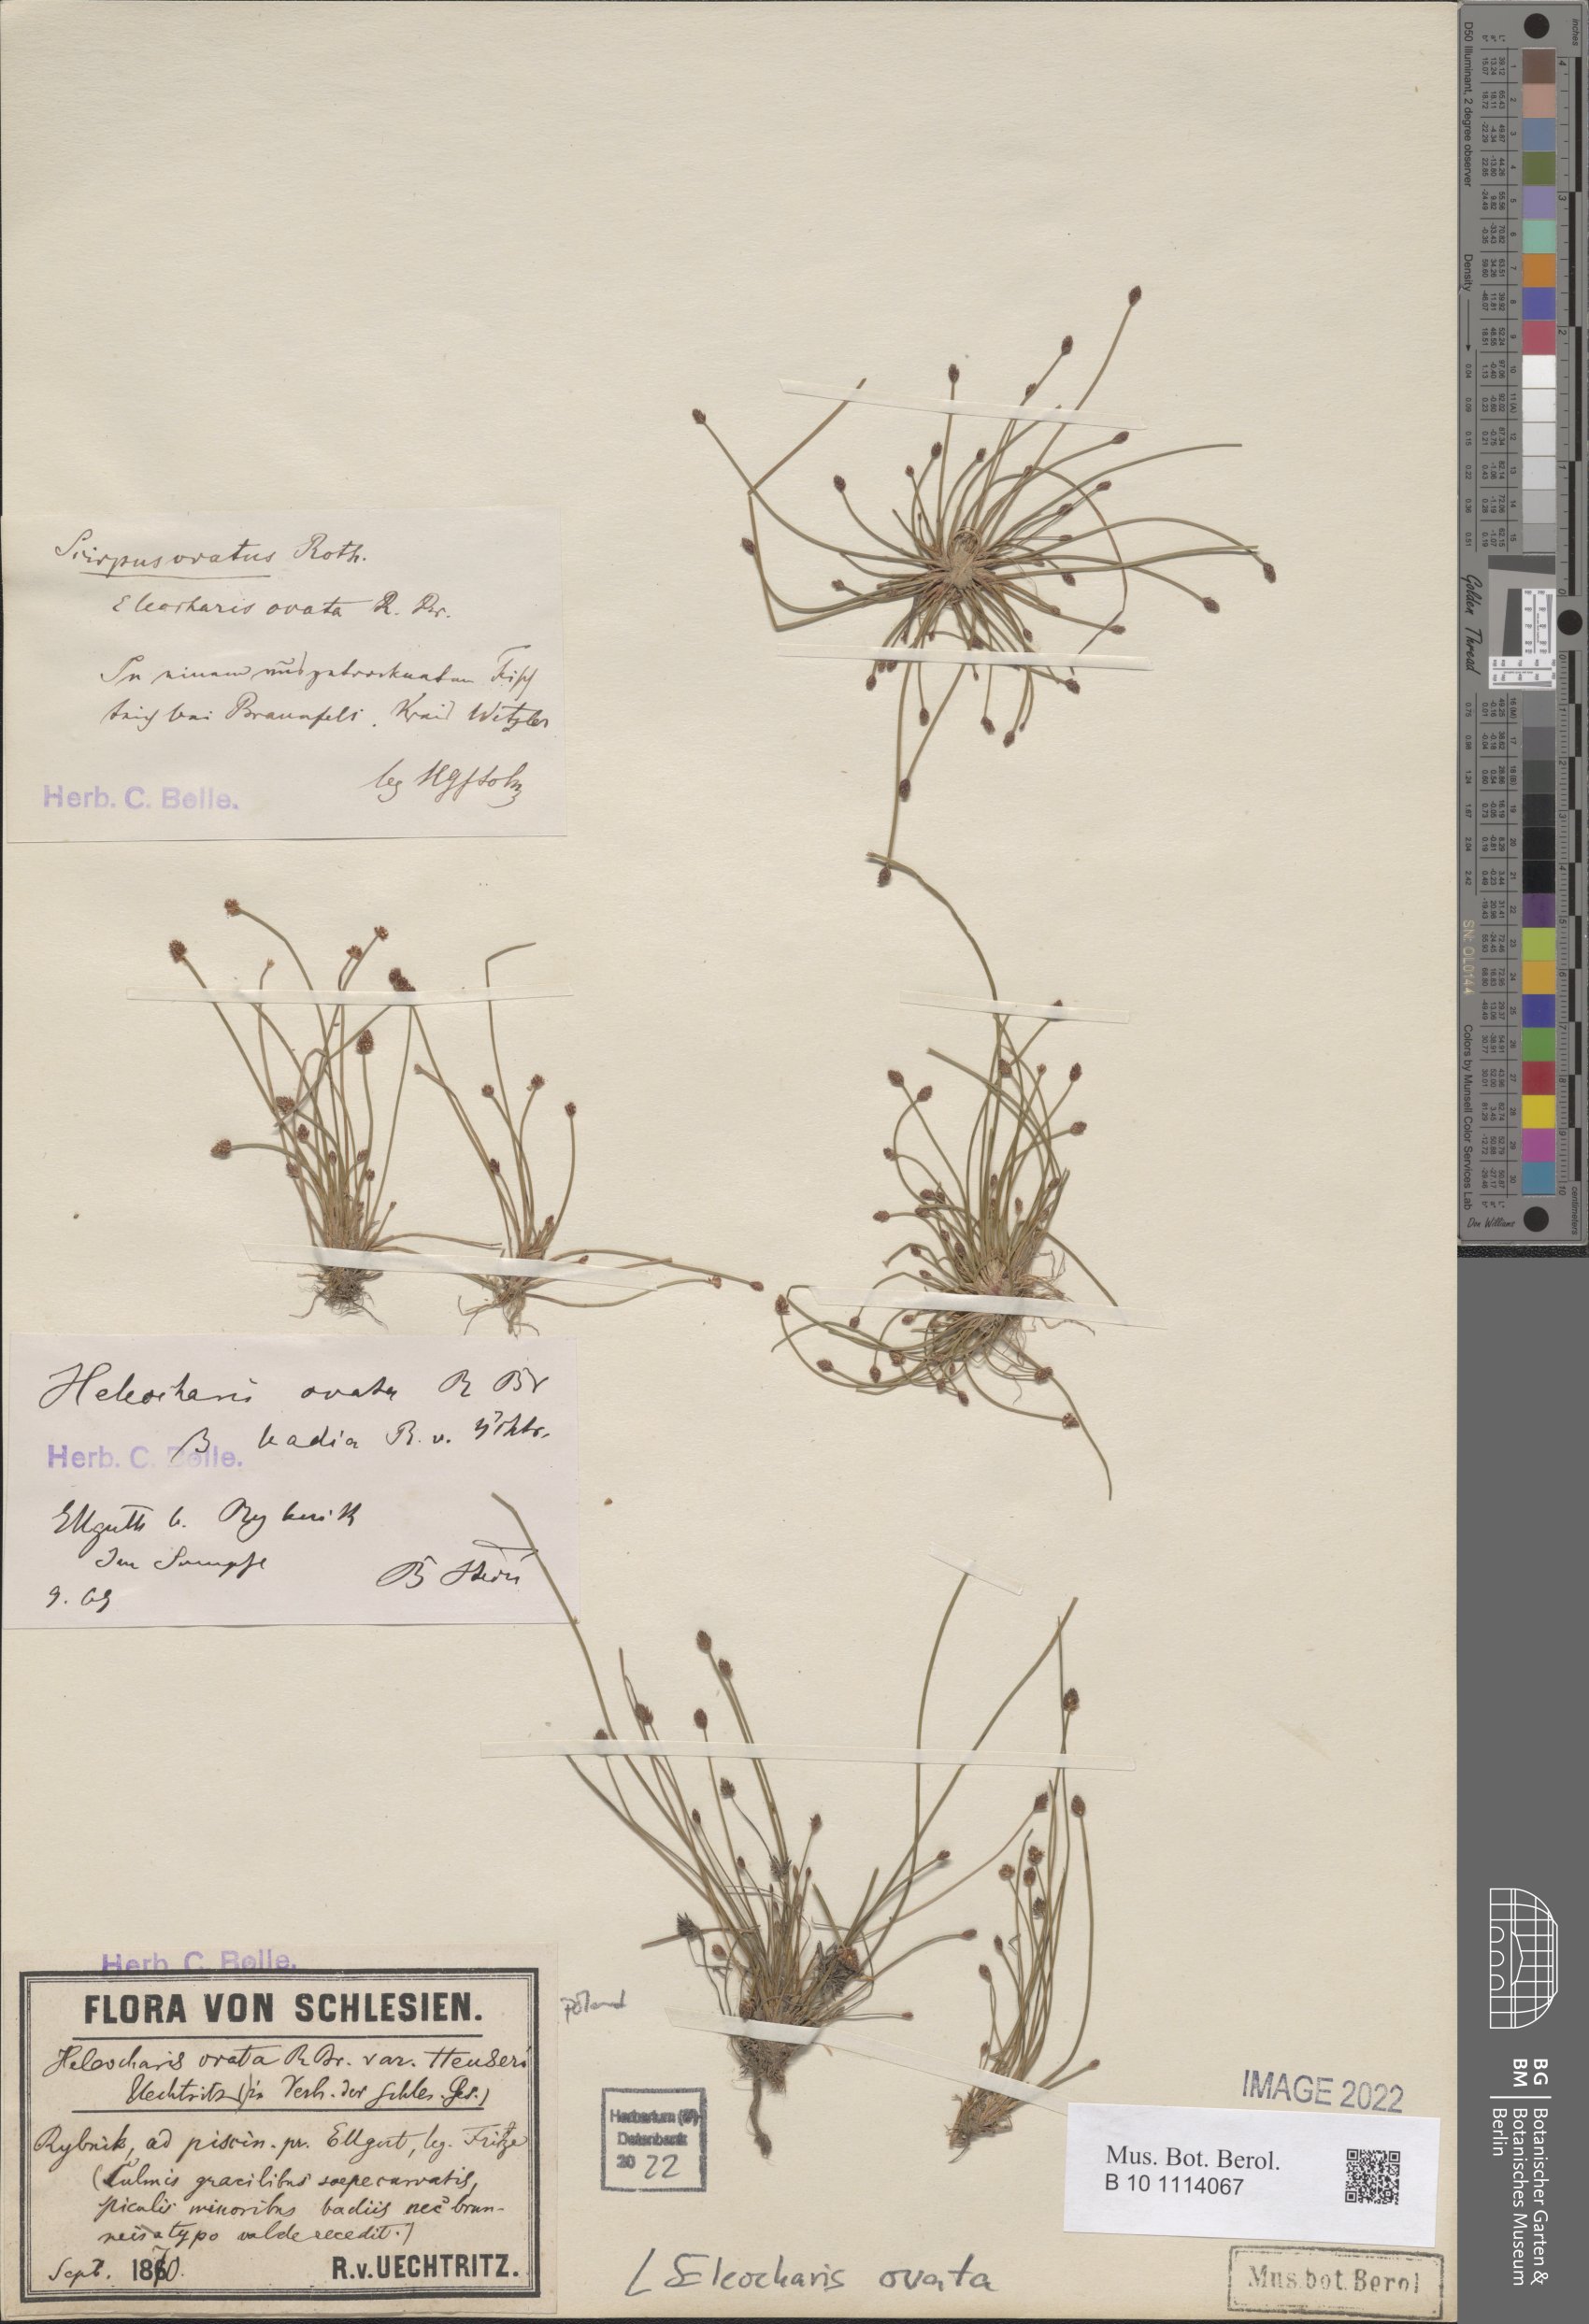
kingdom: Plantae
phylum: Tracheophyta
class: Liliopsida
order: Poales
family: Cyperaceae
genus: Eleocharis
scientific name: Eleocharis ovata
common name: Oval spike-rush
